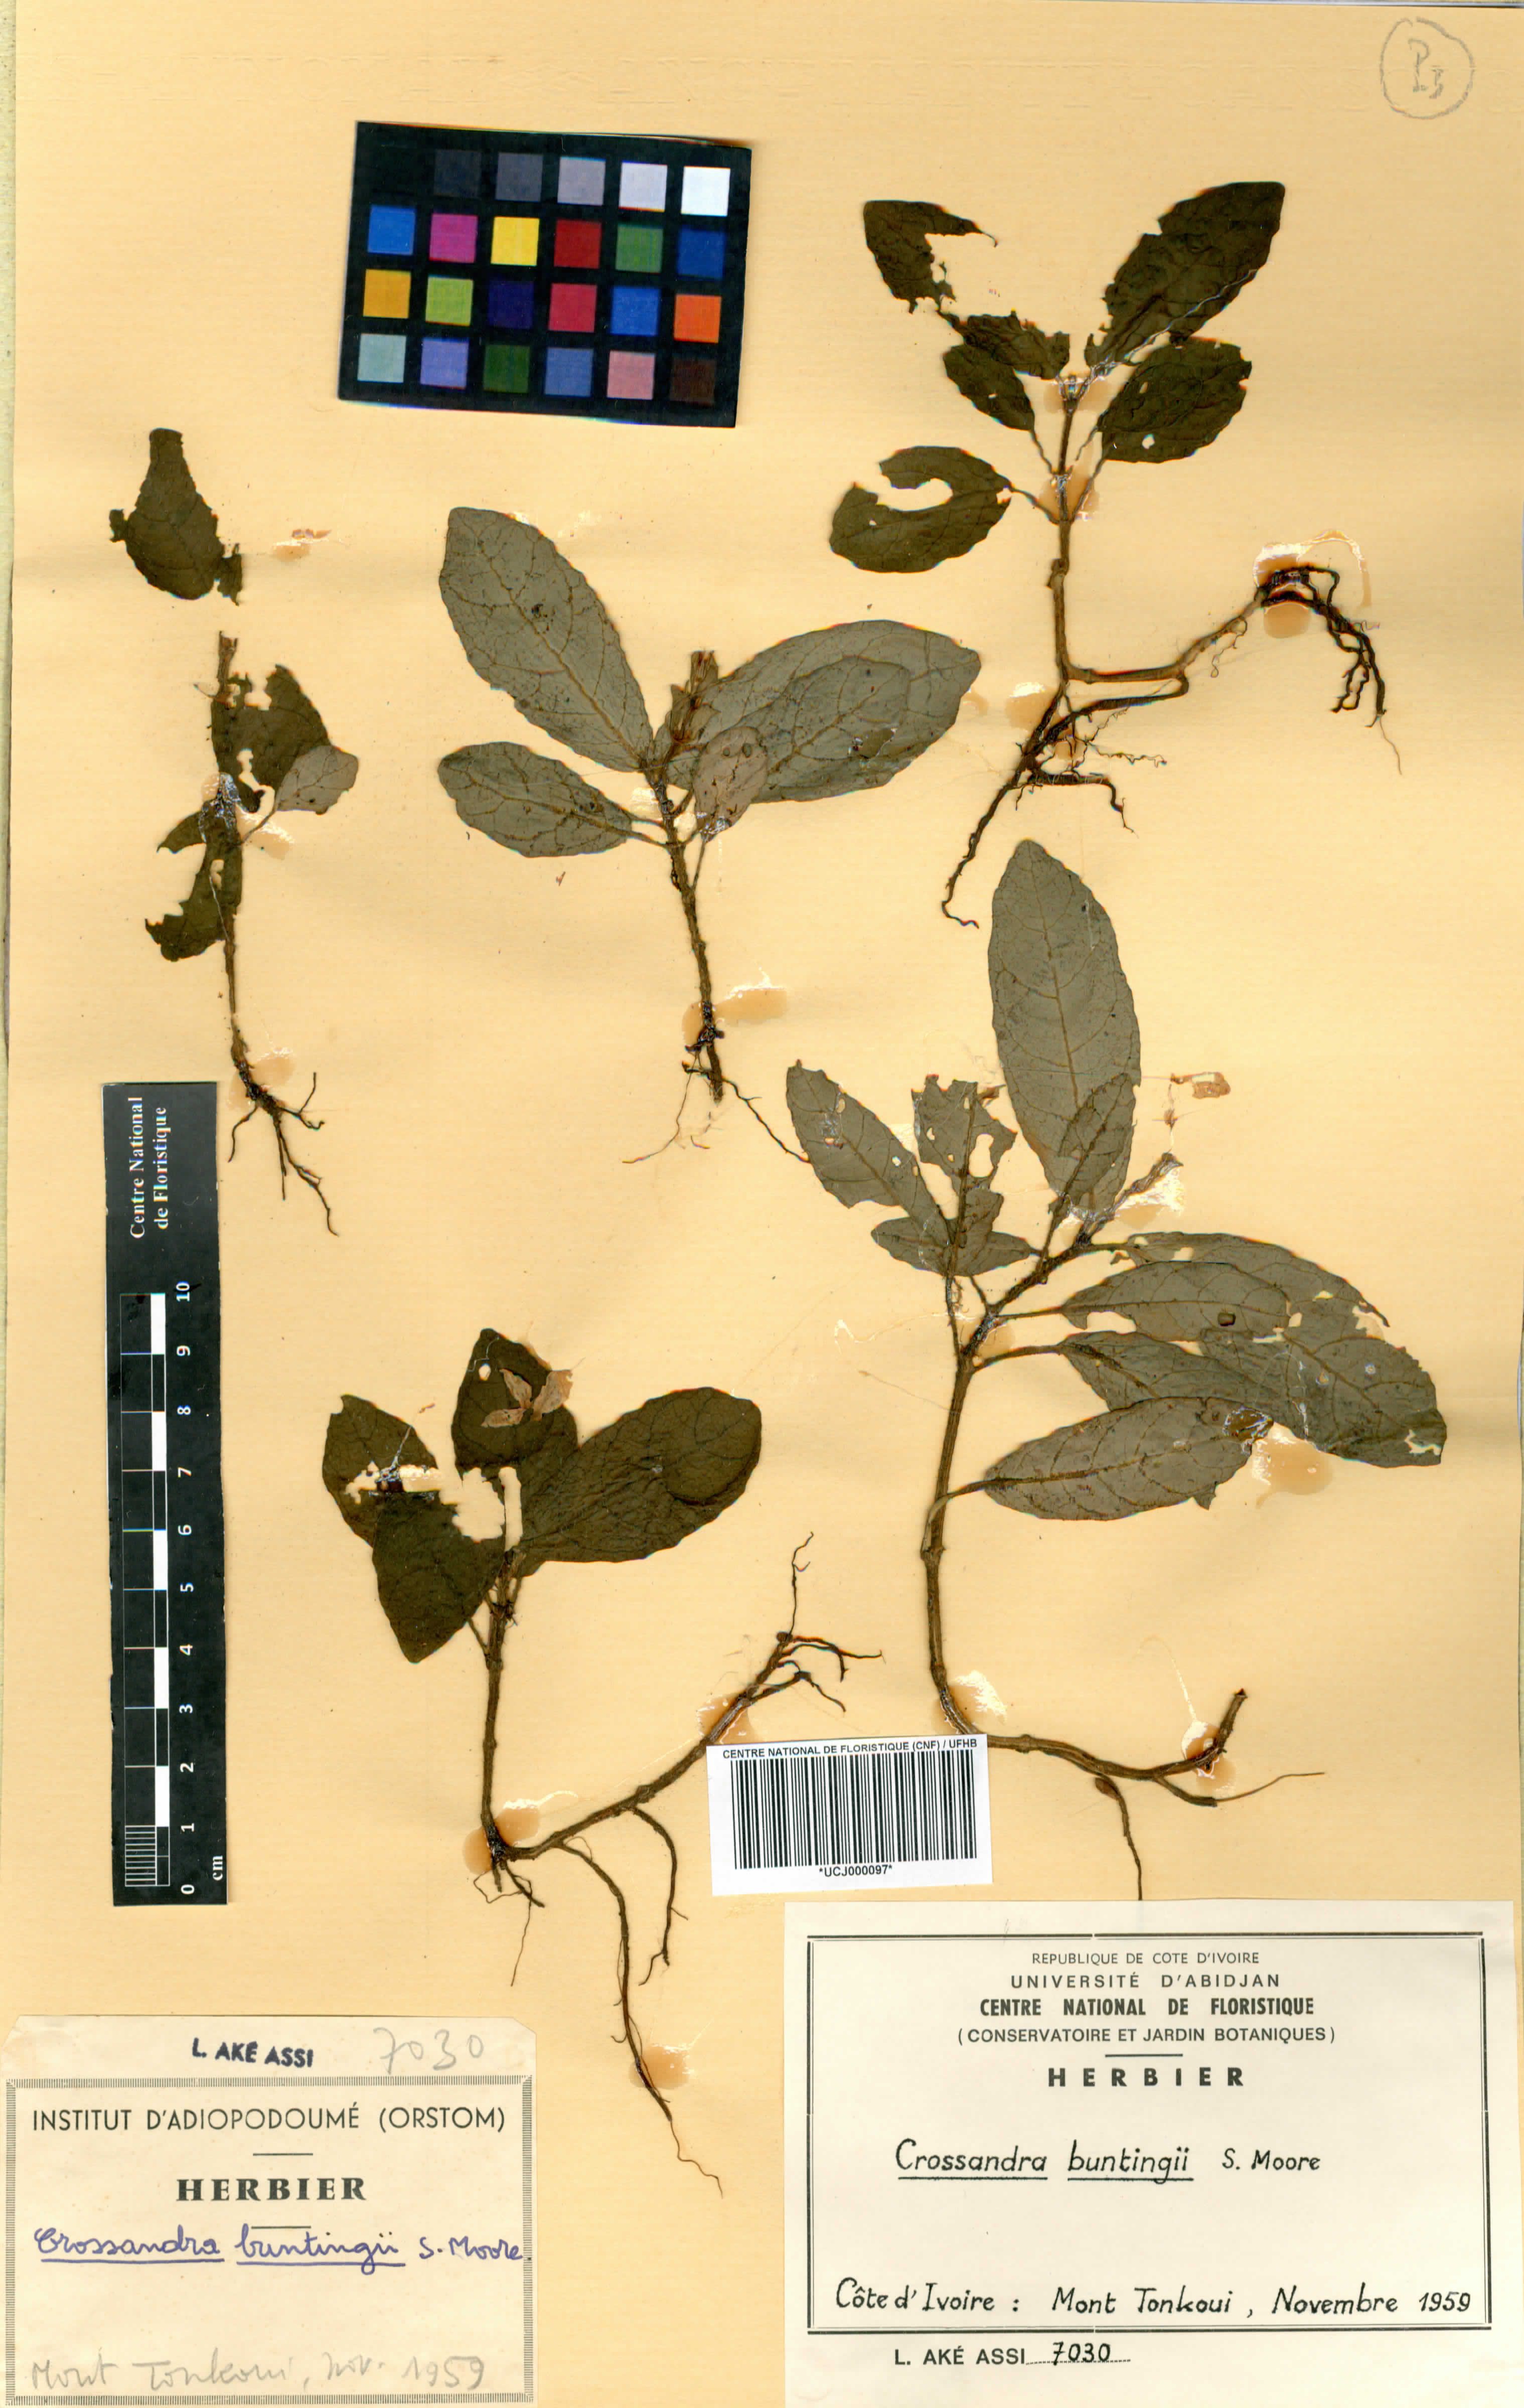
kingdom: Plantae
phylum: Tracheophyta
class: Magnoliopsida
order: Lamiales
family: Acanthaceae
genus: Stenandriopsis
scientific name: Stenandriopsis buntingii
